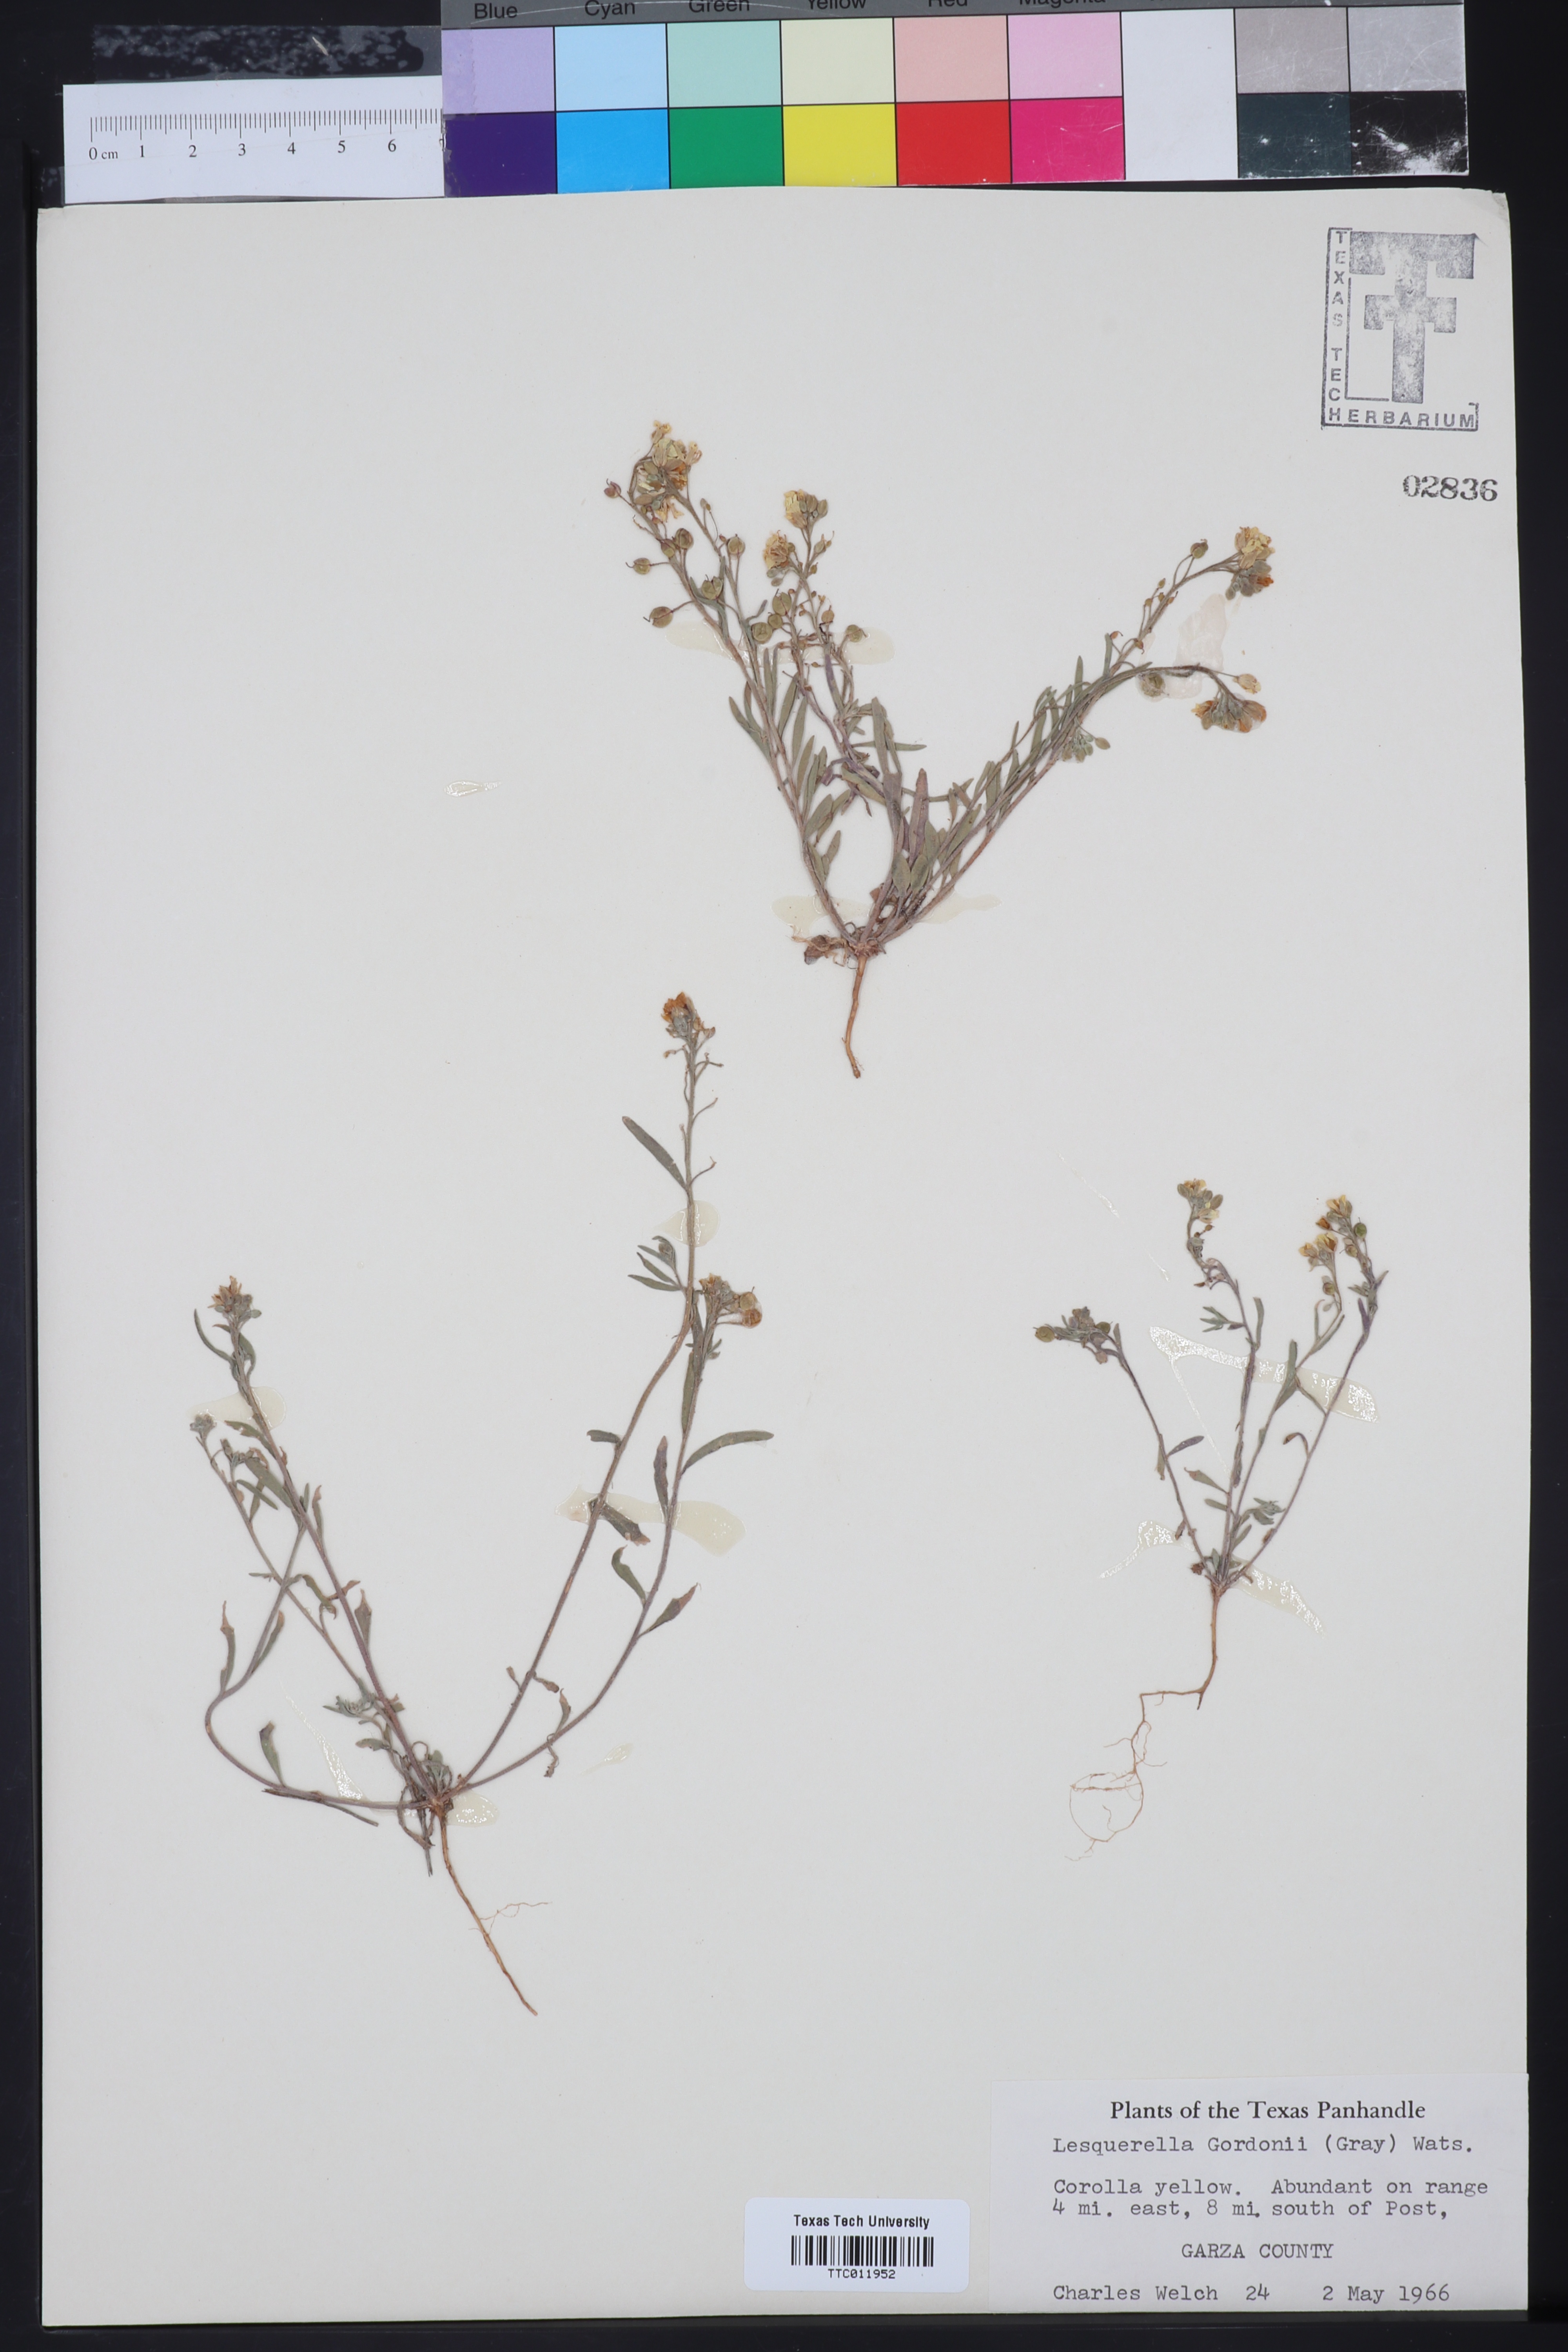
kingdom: Plantae
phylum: Tracheophyta
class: Magnoliopsida
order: Brassicales
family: Brassicaceae
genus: Physaria
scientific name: Physaria gordonii
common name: Gordon's bladderpod
